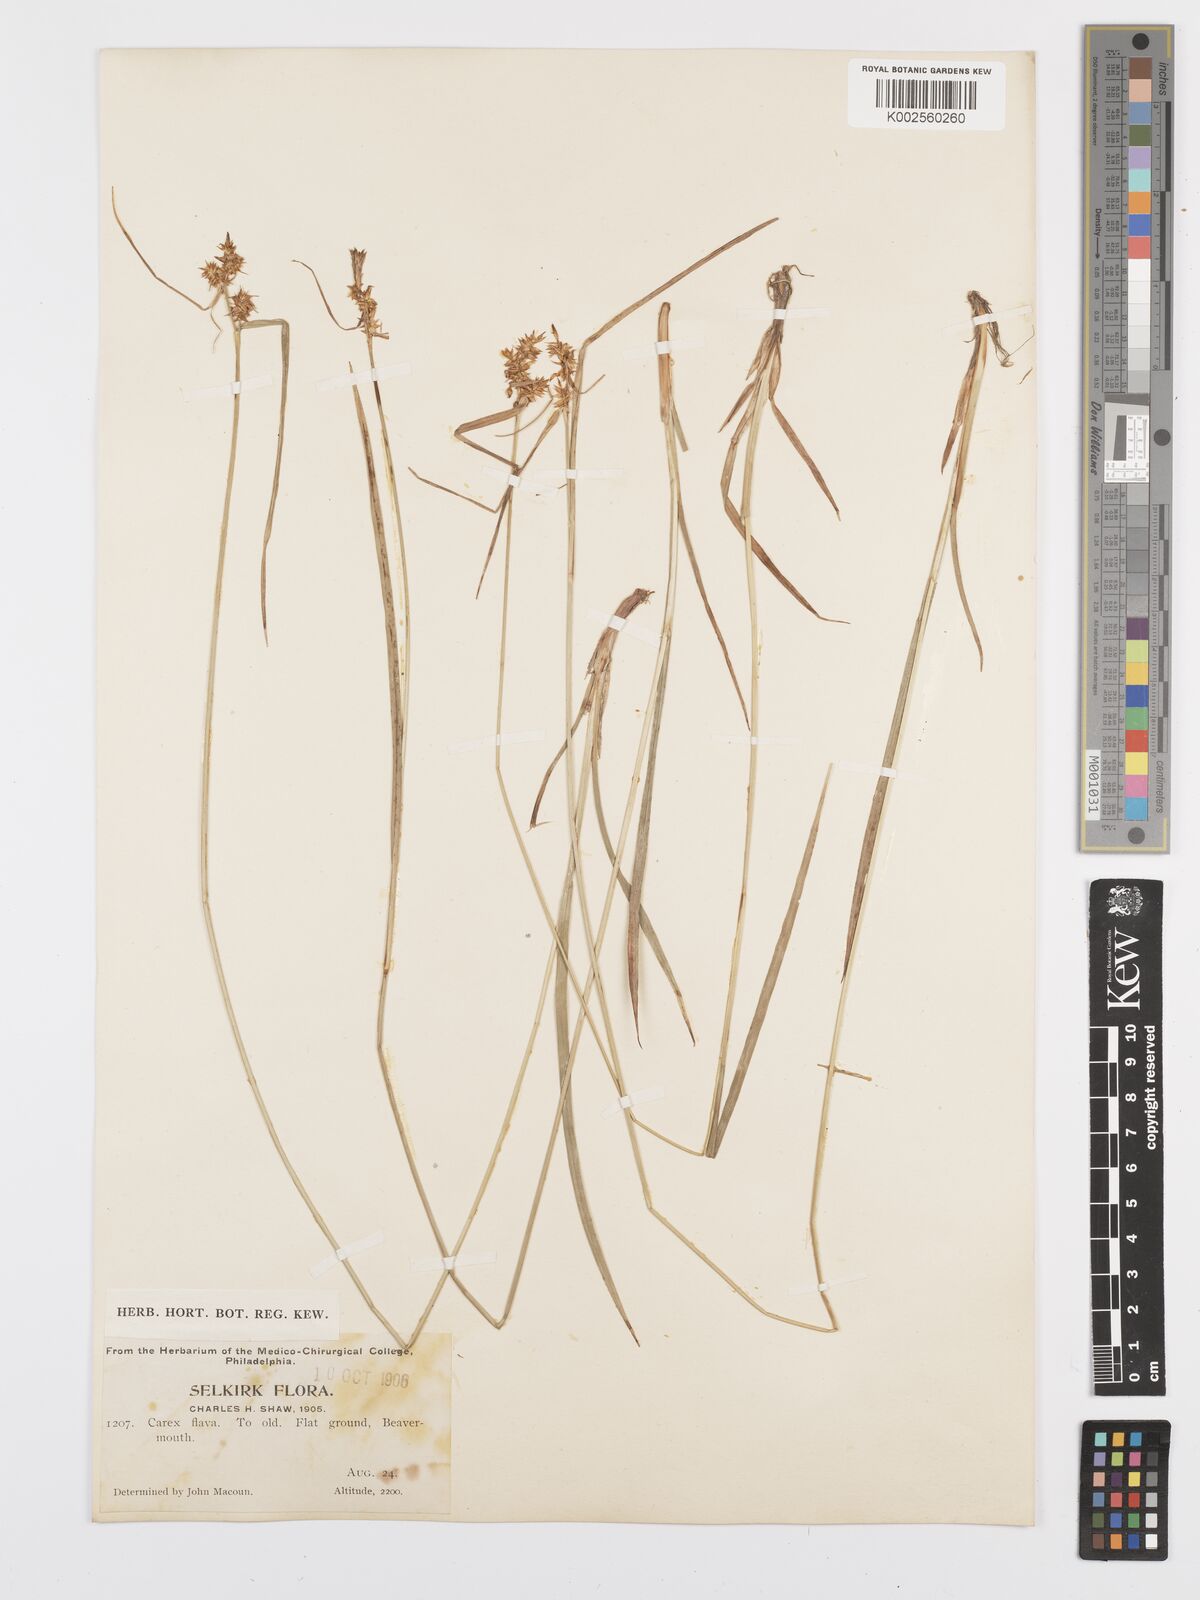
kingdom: Plantae
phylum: Tracheophyta
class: Liliopsida
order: Poales
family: Cyperaceae
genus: Carex
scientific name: Carex flava
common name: Large yellow-sedge
